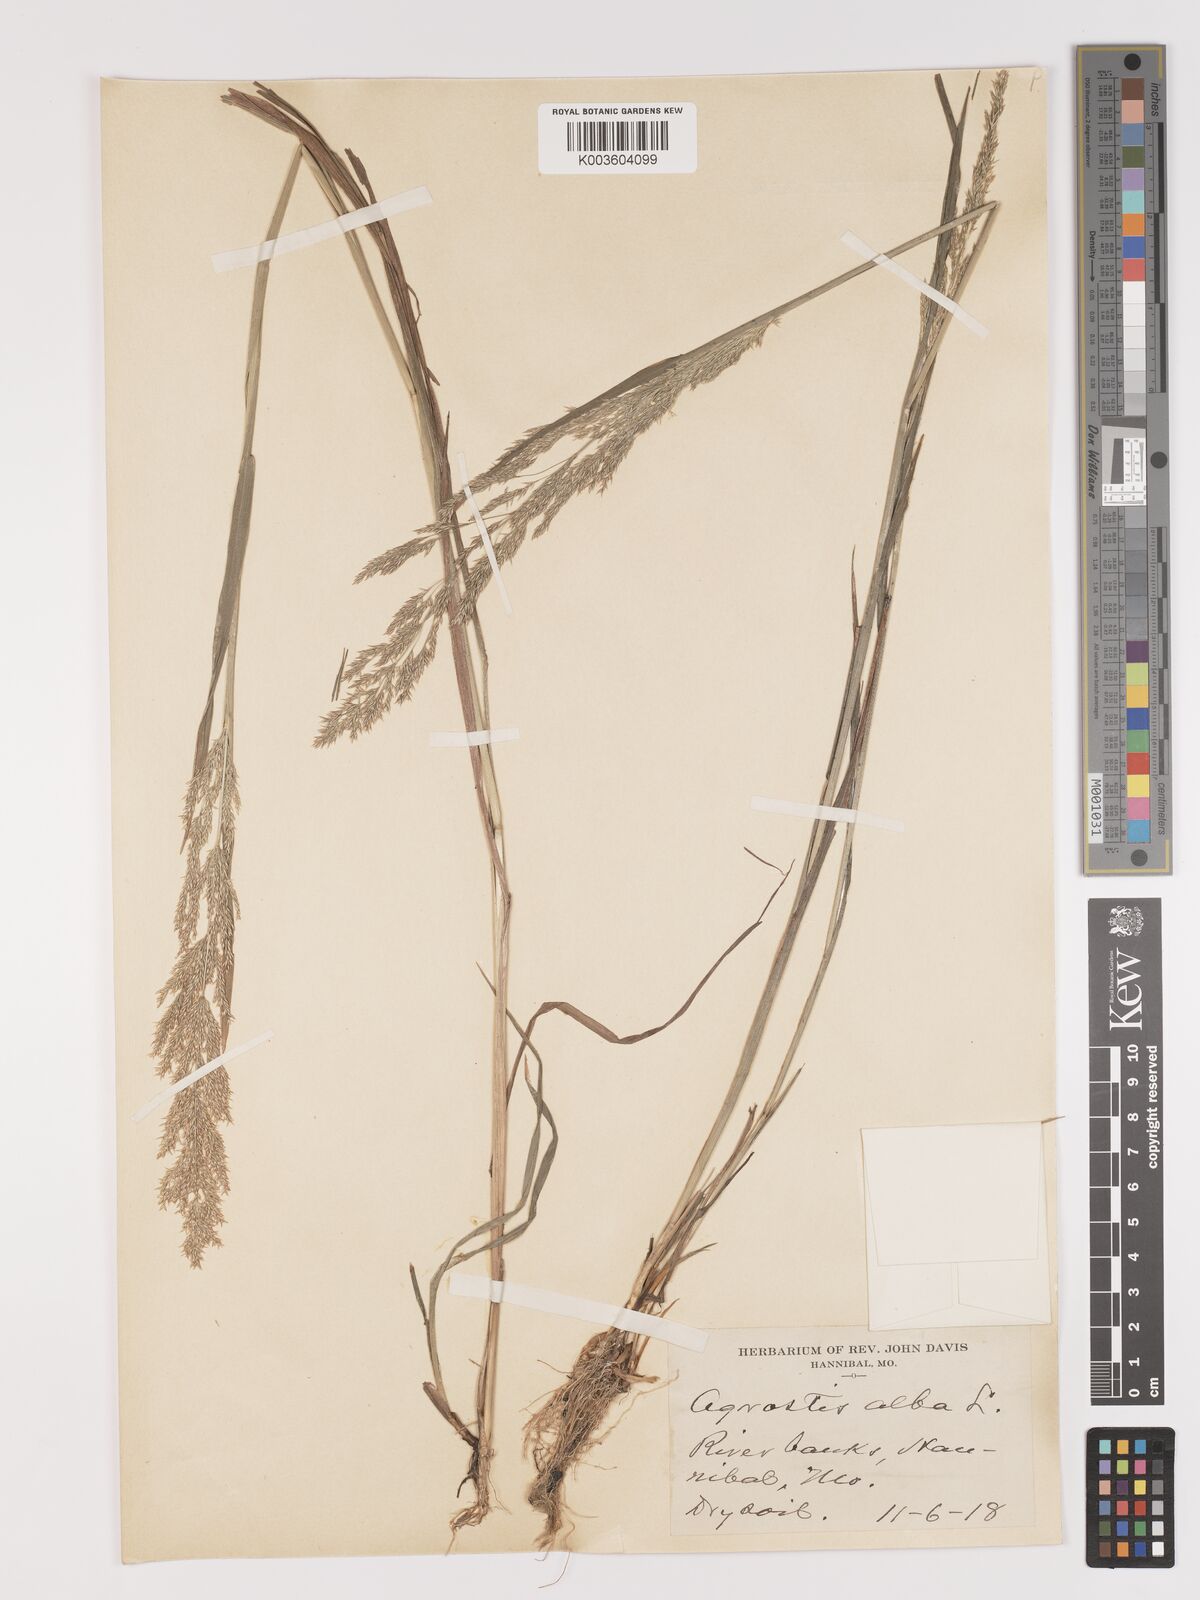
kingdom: Plantae
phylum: Tracheophyta
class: Liliopsida
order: Poales
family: Poaceae
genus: Agrostis
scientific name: Agrostis gigantea
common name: Black bent
